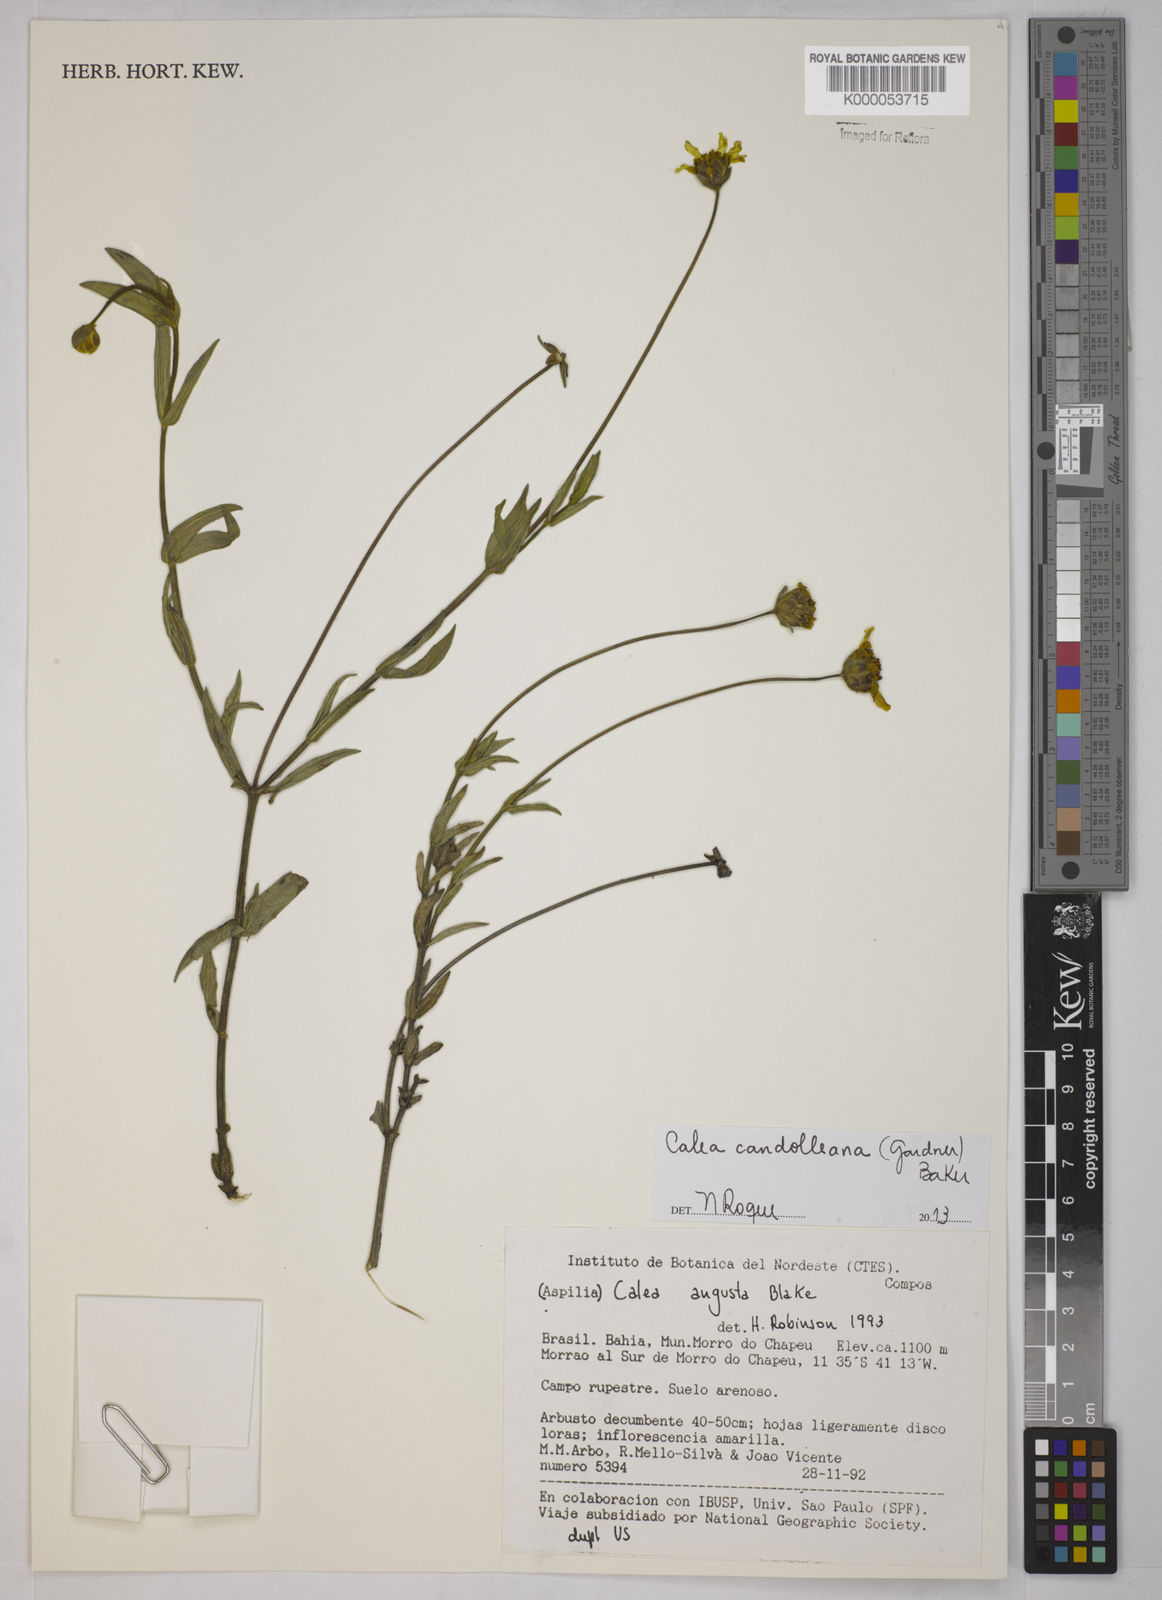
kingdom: Plantae
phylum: Tracheophyta
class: Magnoliopsida
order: Asterales
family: Asteraceae
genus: Calea
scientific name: Calea angusta
